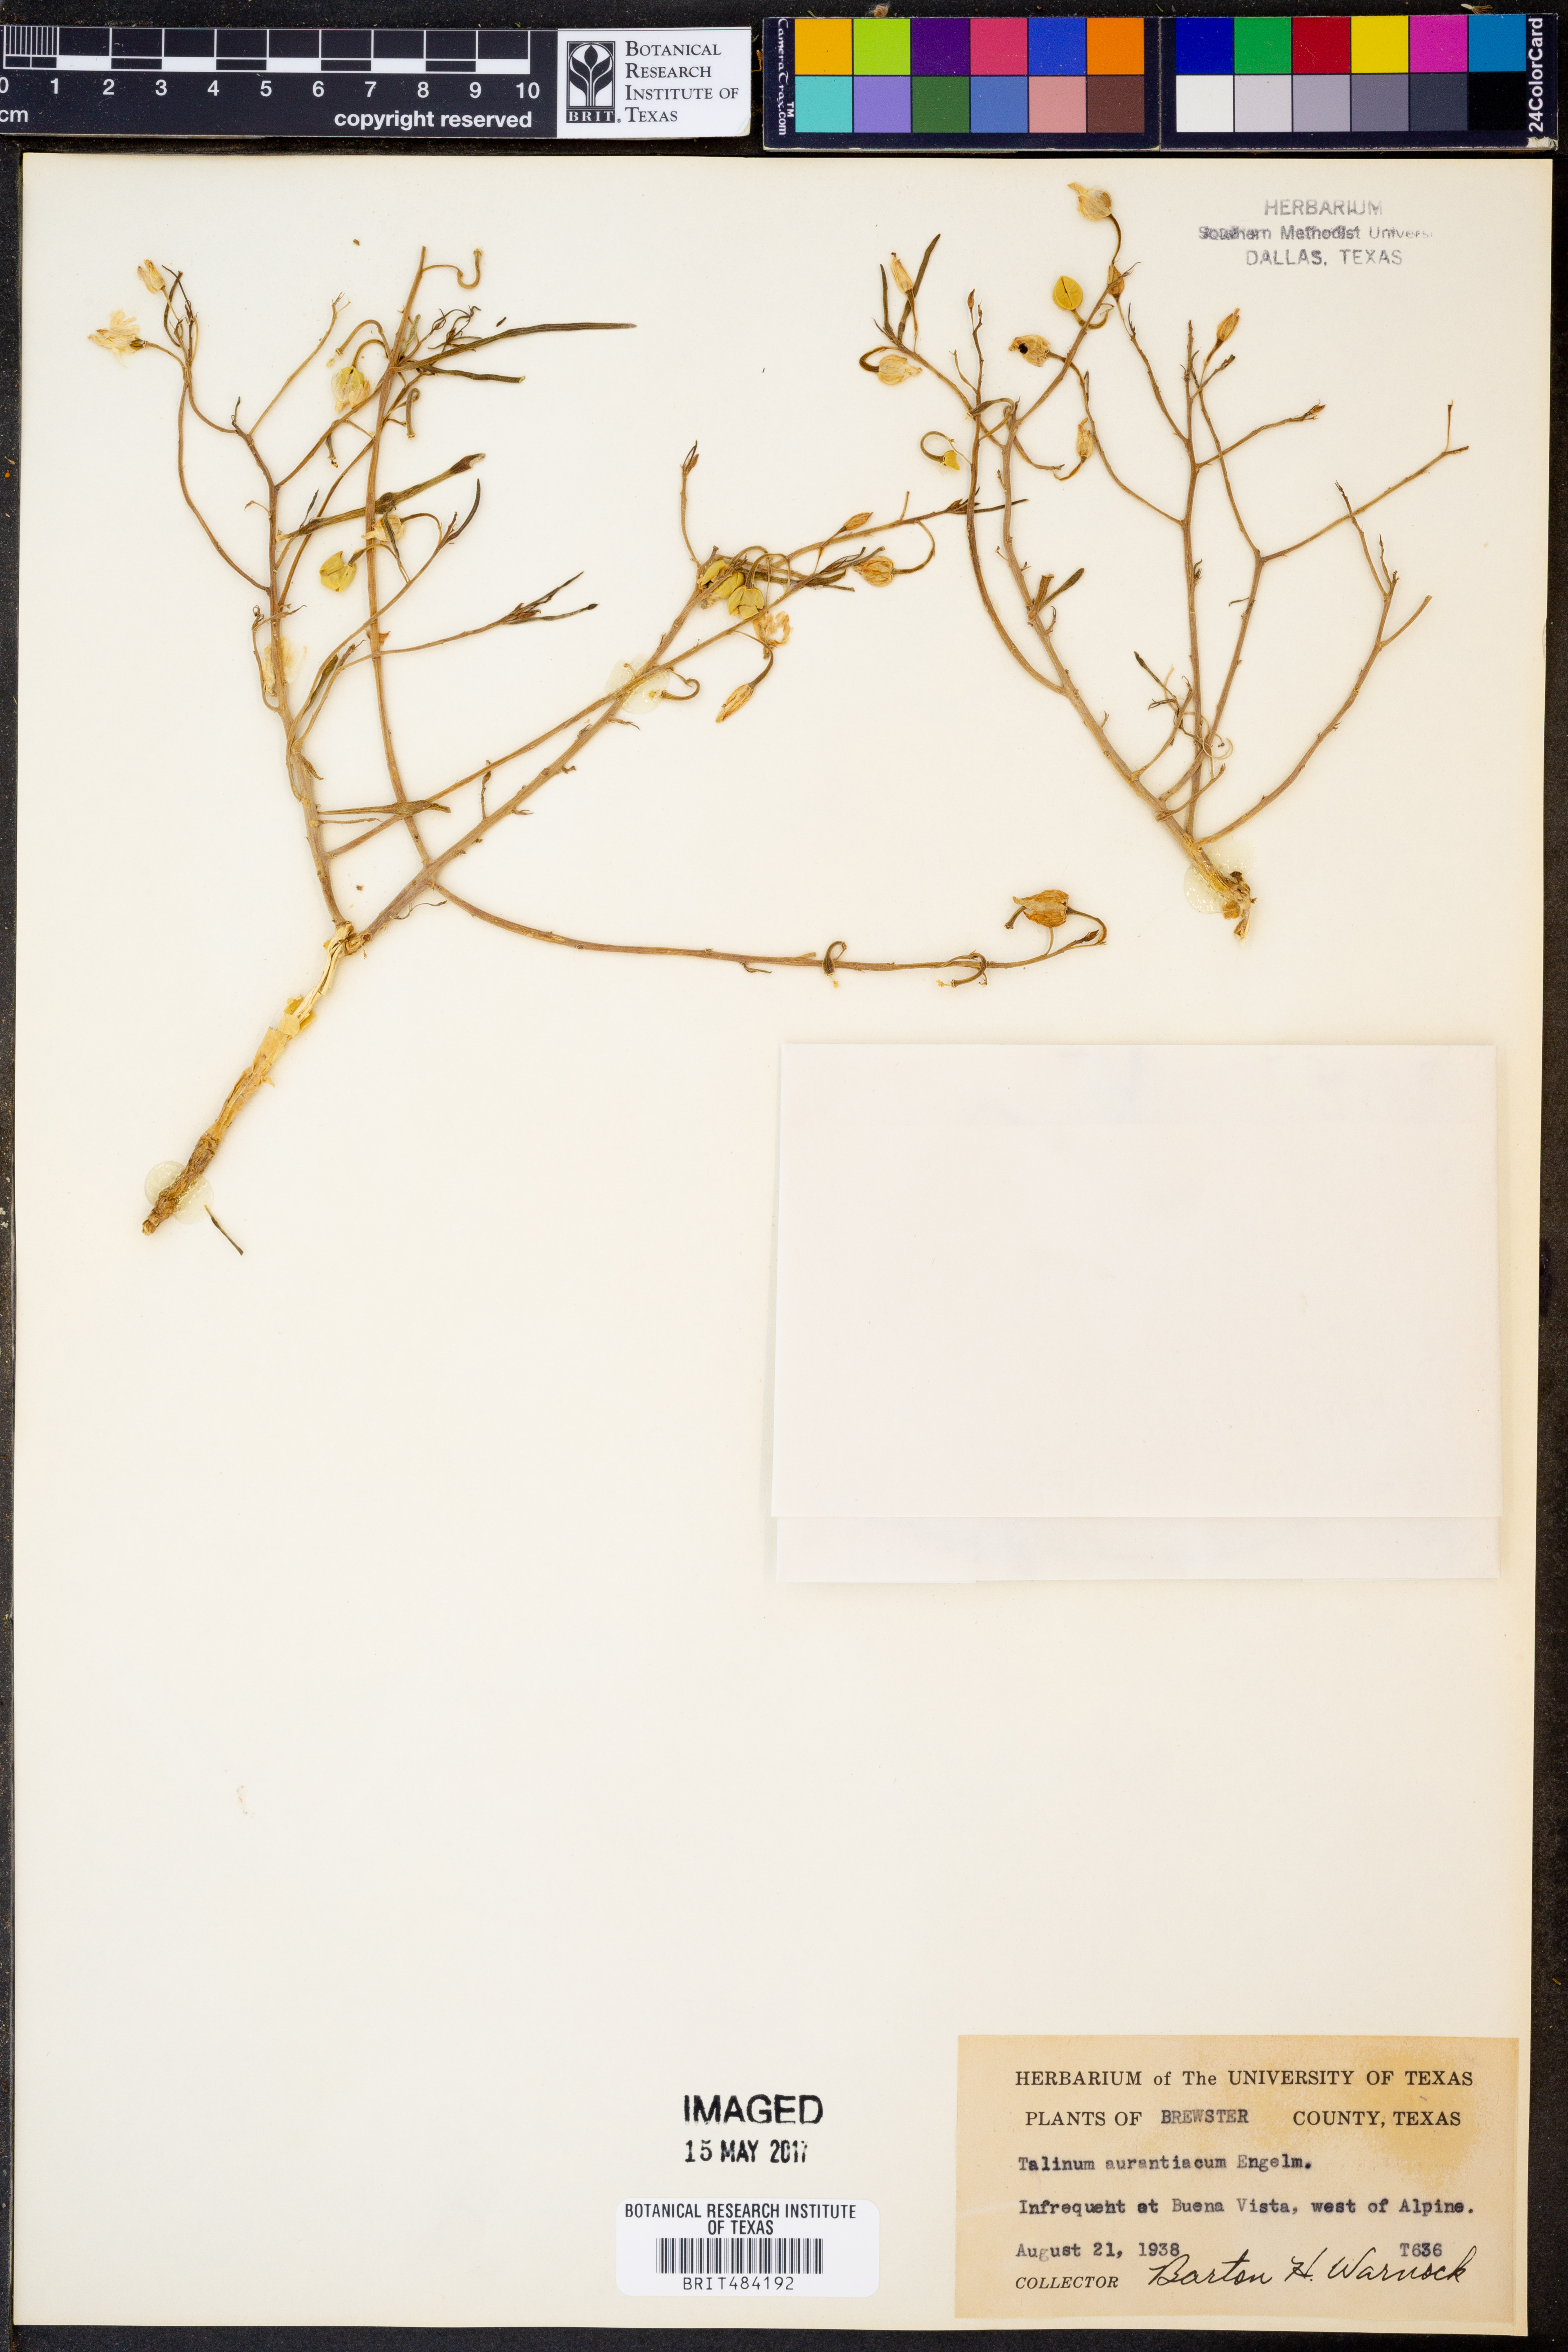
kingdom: Plantae
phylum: Tracheophyta
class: Magnoliopsida
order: Caryophyllales
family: Montiaceae
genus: Phemeranthus
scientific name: Phemeranthus aurantiacus
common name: Orange fameflower
